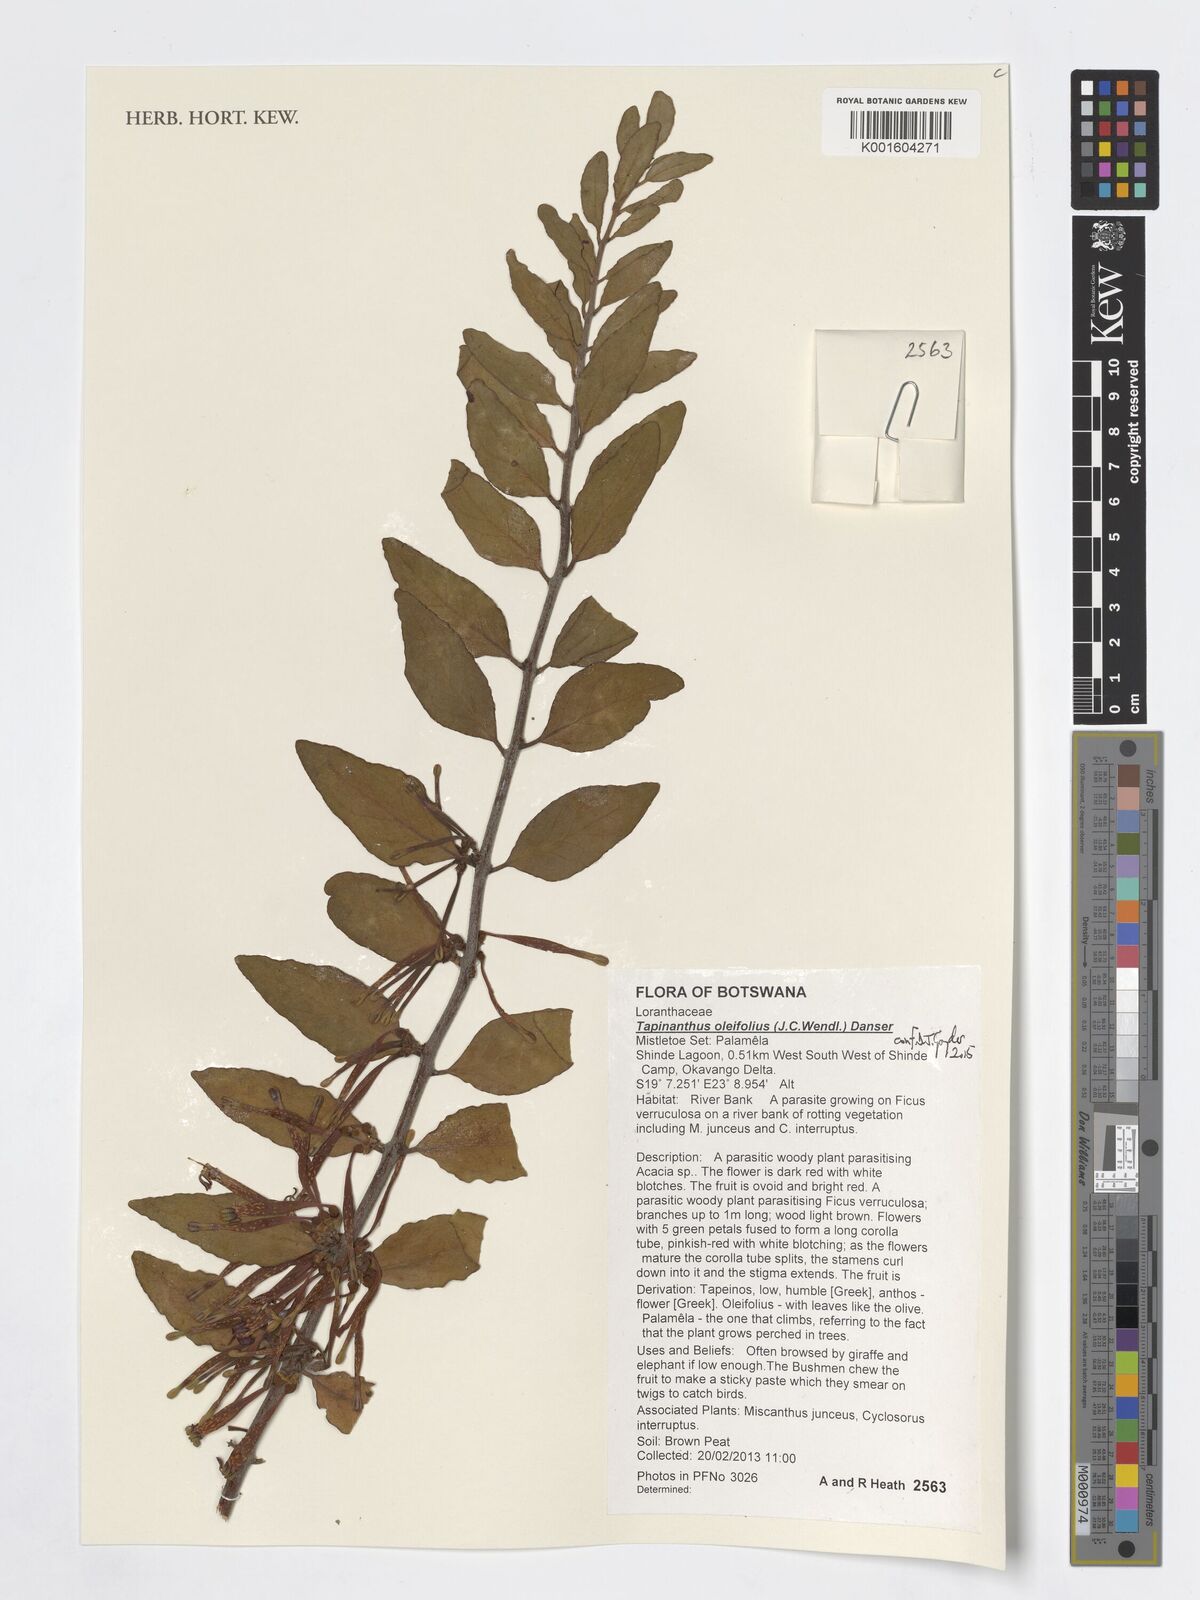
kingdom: Plantae
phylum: Tracheophyta
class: Magnoliopsida
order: Santalales
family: Loranthaceae
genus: Tapinanthus
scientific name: Tapinanthus oleifolius
